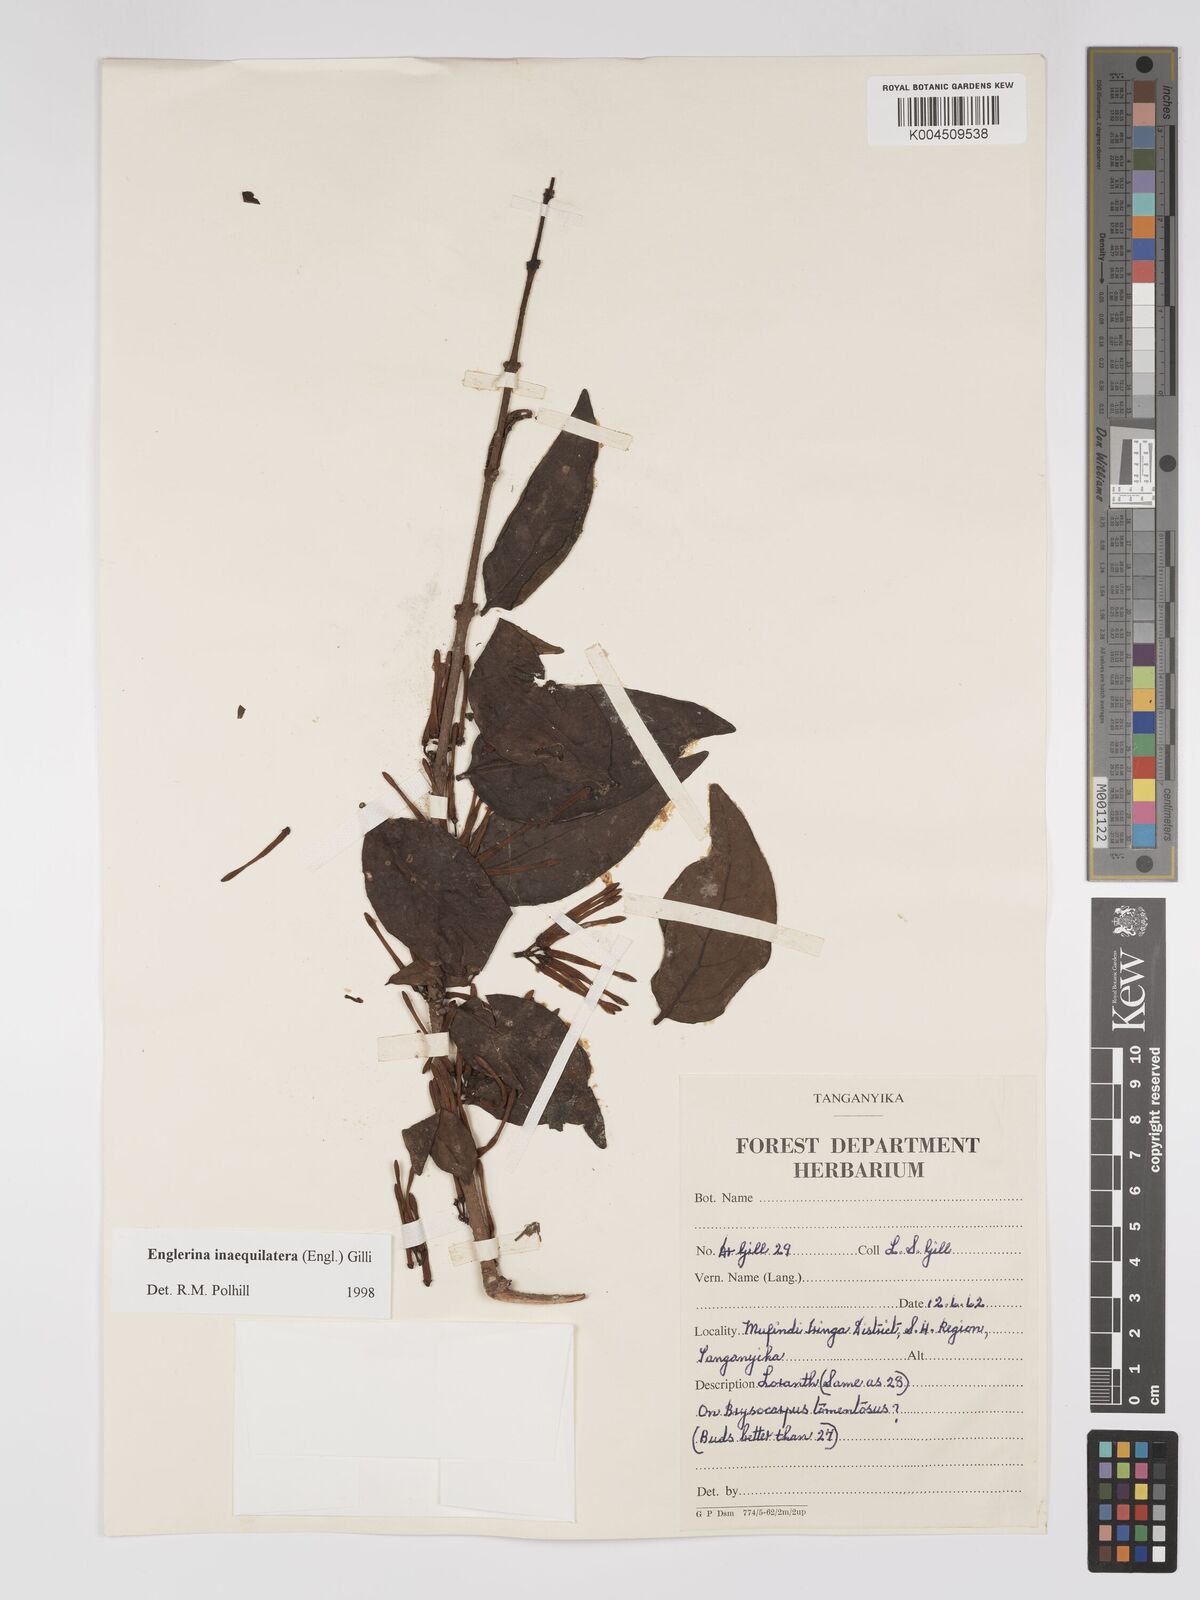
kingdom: Plantae
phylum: Tracheophyta
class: Magnoliopsida
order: Santalales
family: Loranthaceae
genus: Englerina
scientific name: Englerina inaequilatera
